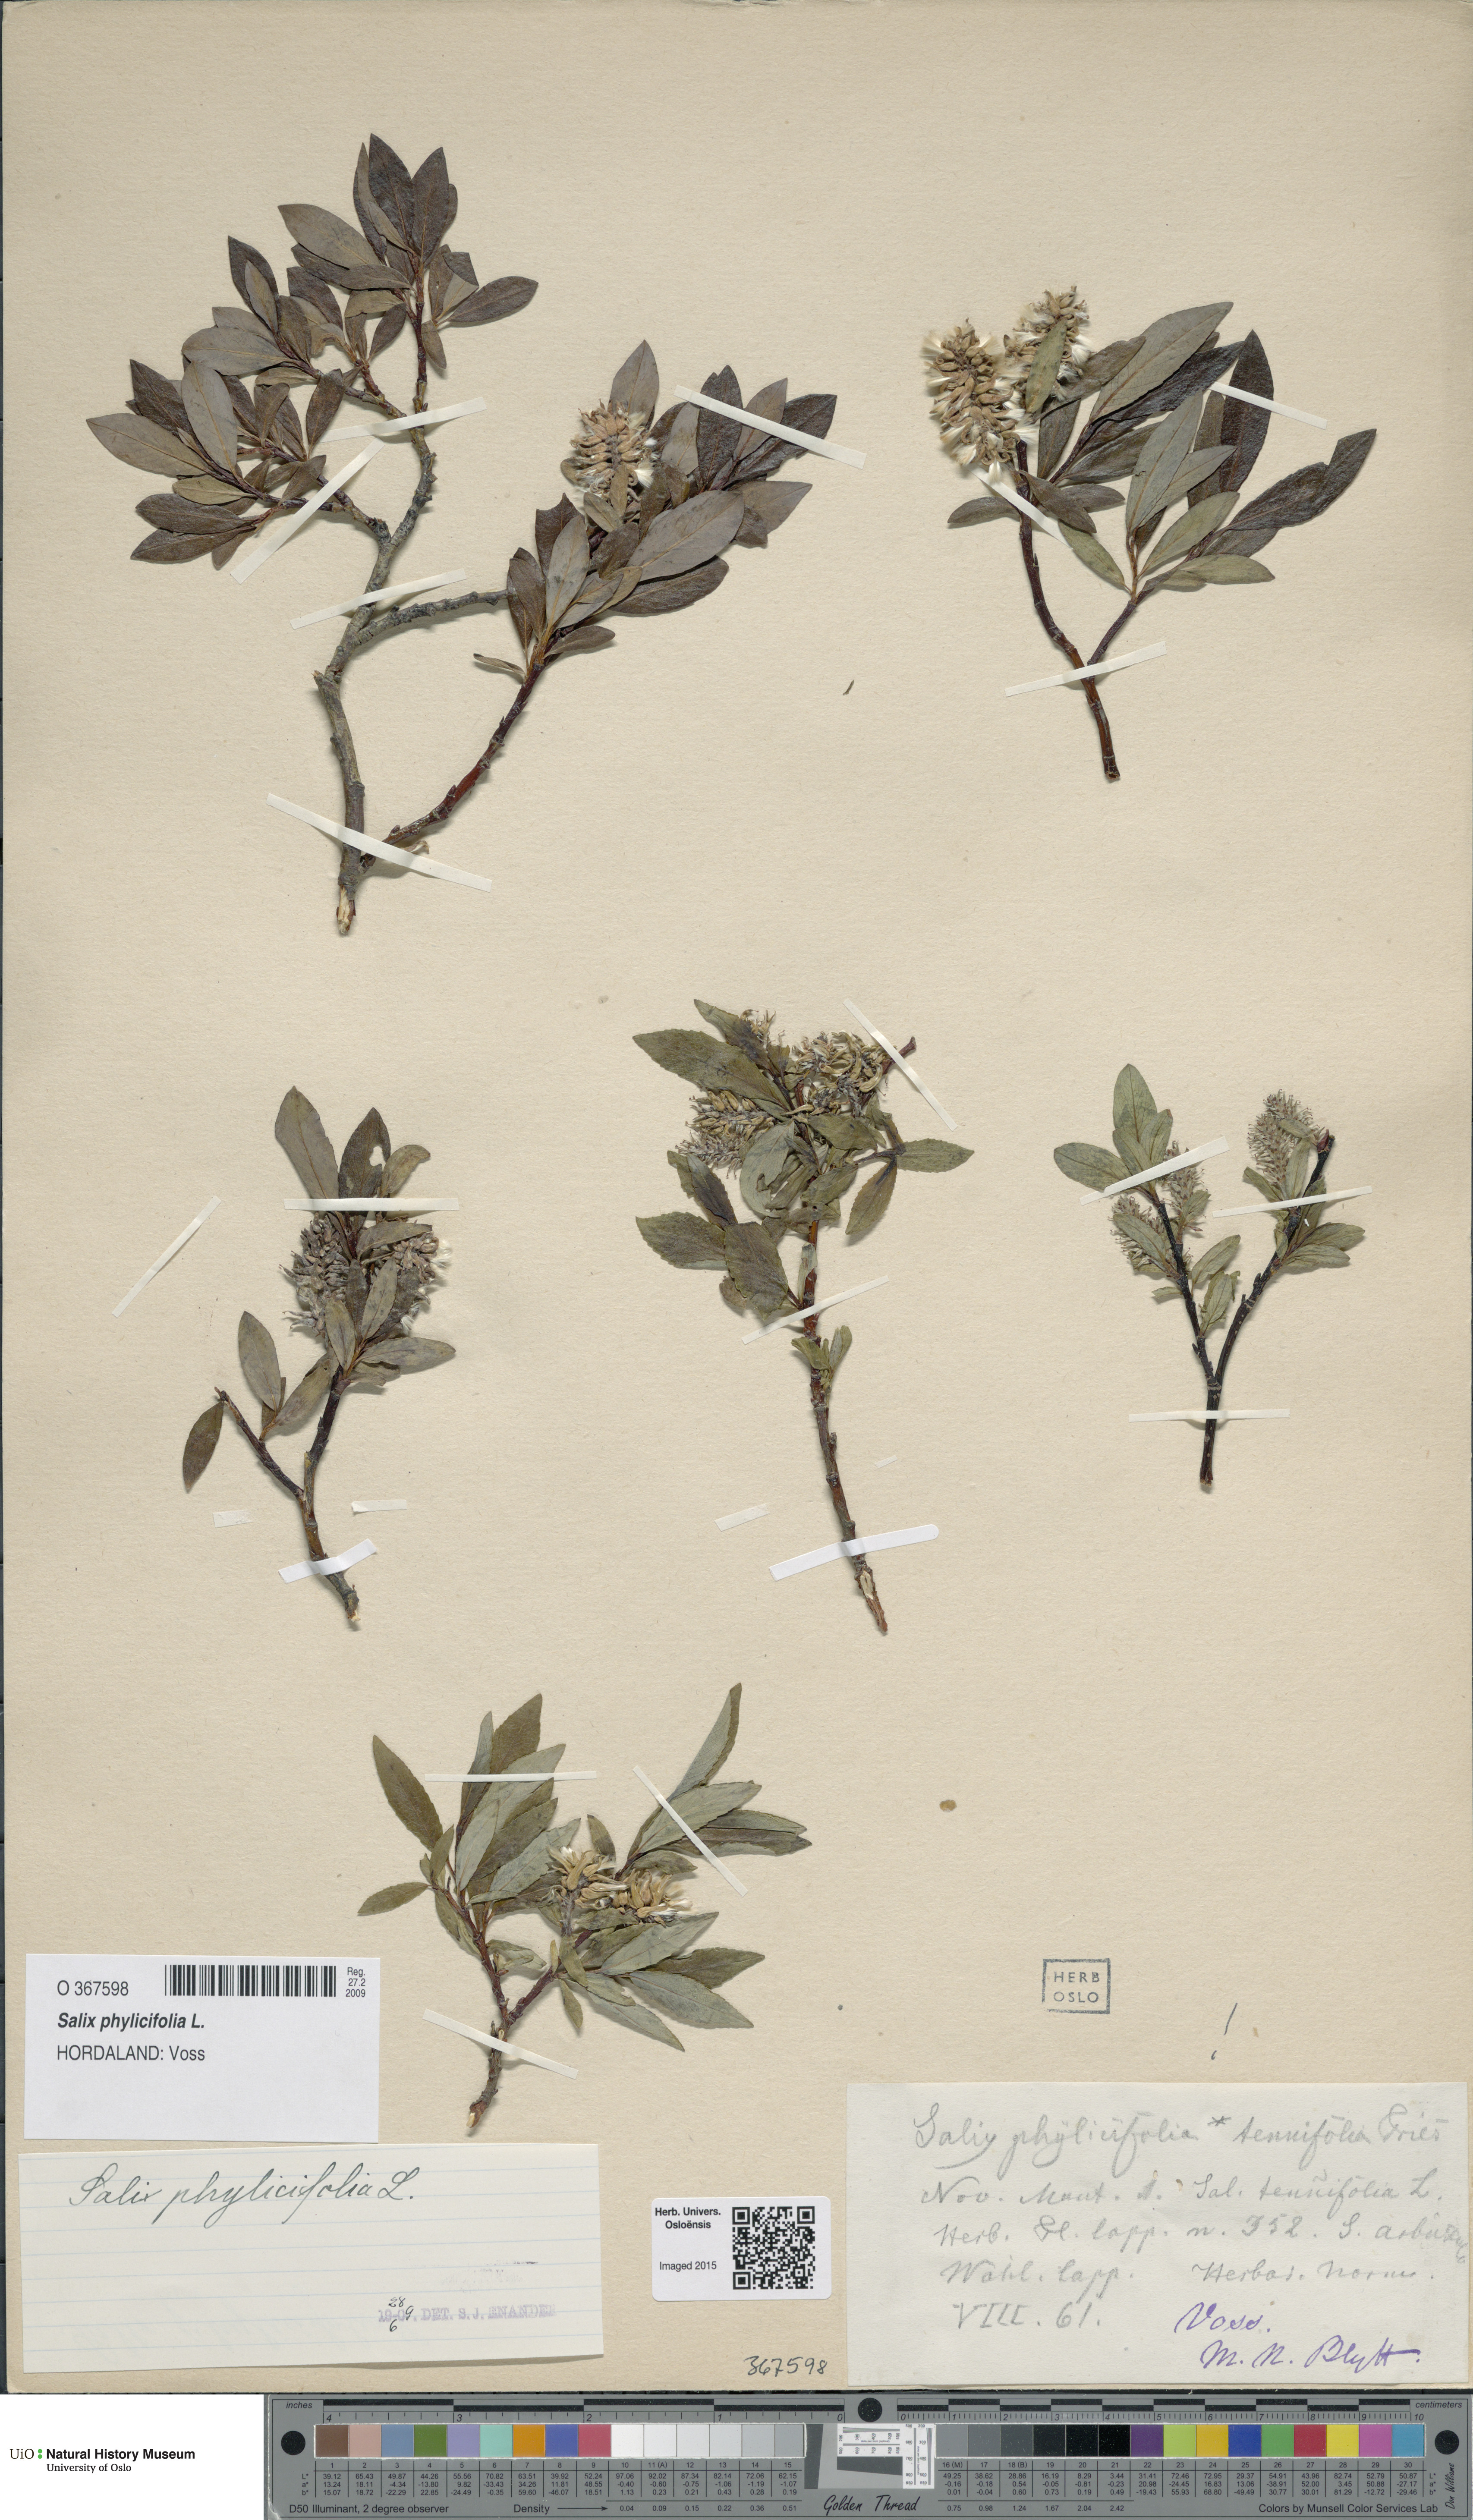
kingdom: Plantae
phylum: Tracheophyta
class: Magnoliopsida
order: Malpighiales
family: Salicaceae
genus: Salix
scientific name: Salix phylicifolia
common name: Tea-leaved willow
